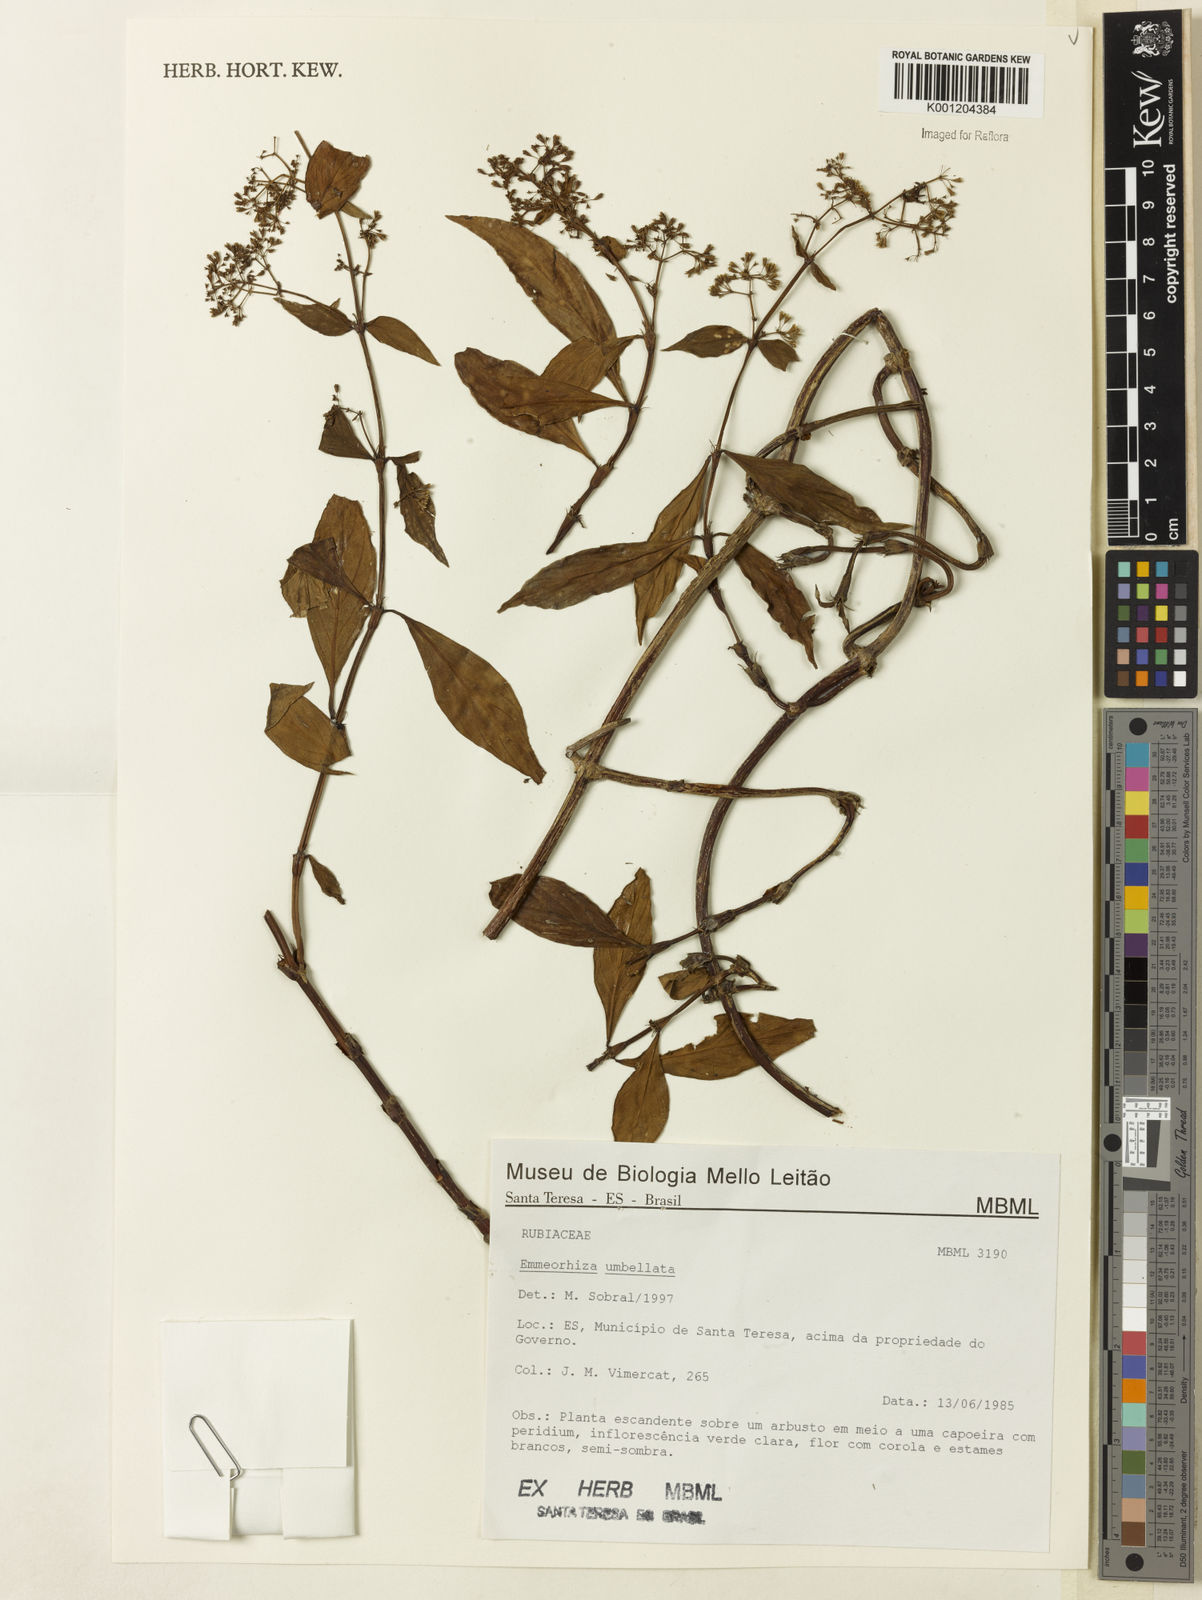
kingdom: Plantae
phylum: Tracheophyta
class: Magnoliopsida
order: Gentianales
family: Rubiaceae
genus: Emmeorhiza
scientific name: Emmeorhiza umbellata
